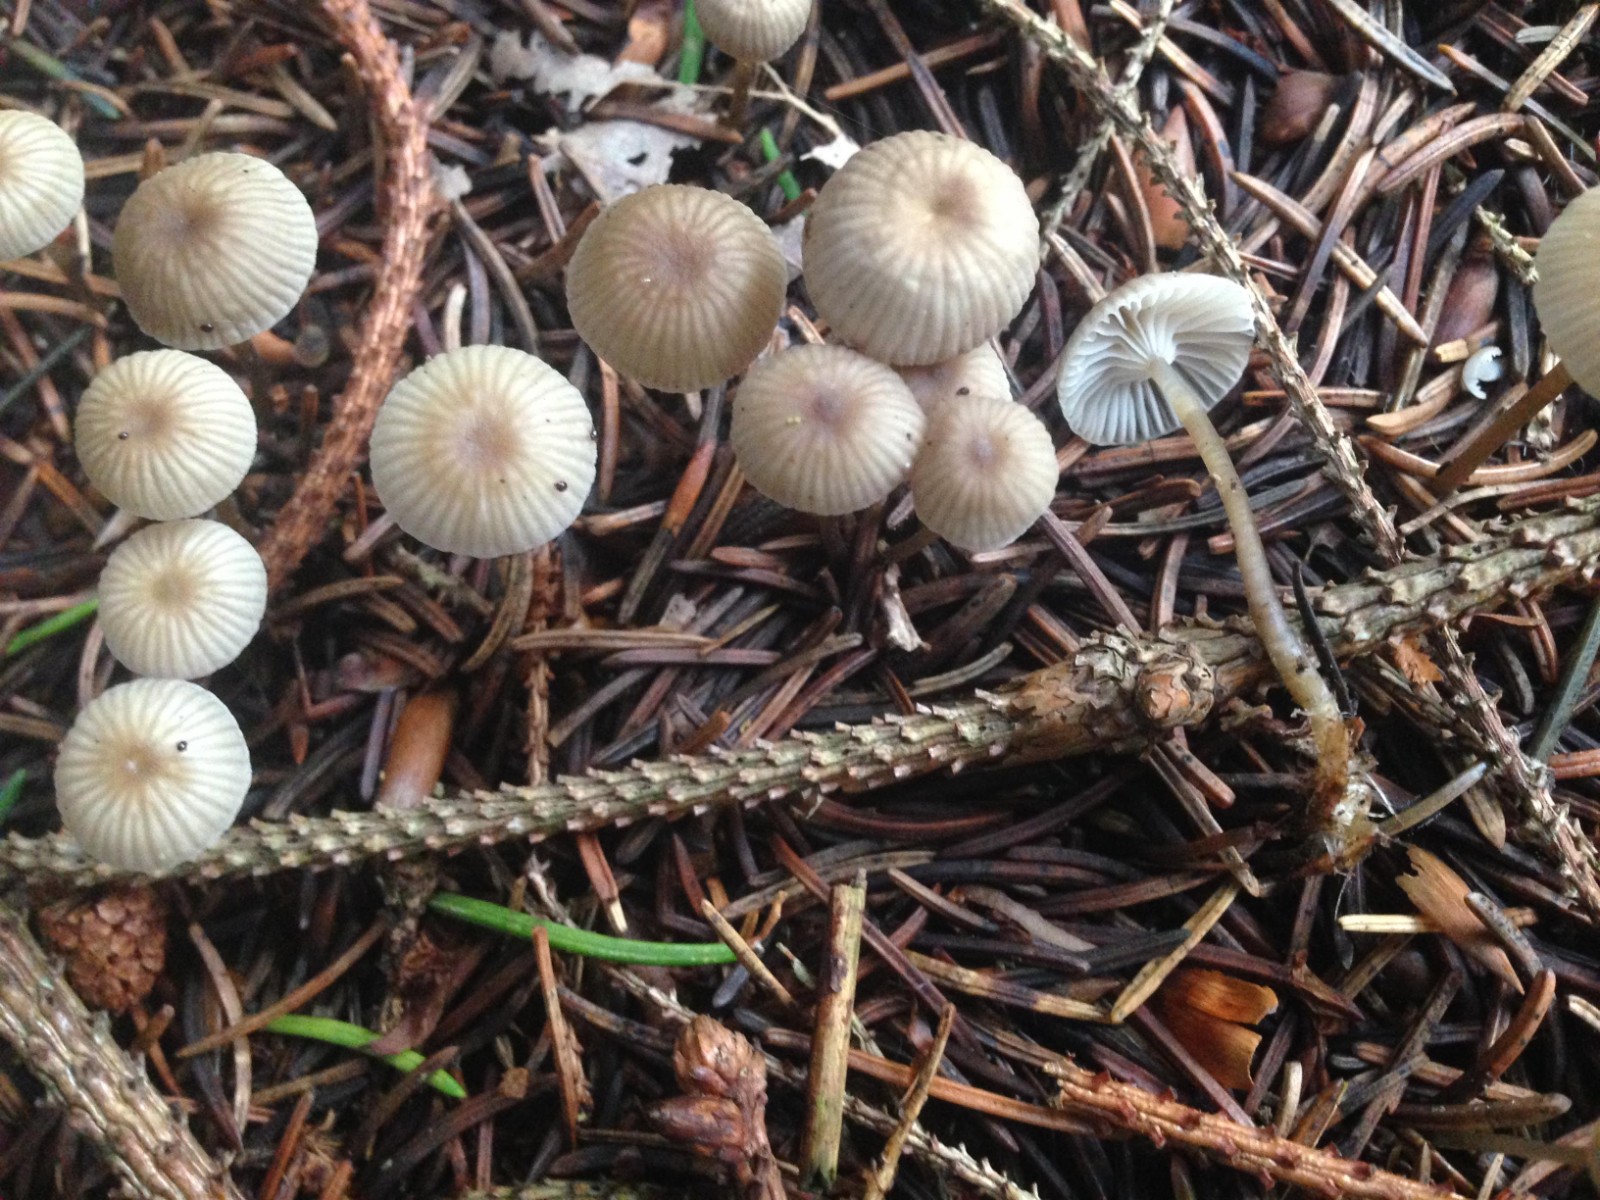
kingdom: Fungi
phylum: Basidiomycota
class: Agaricomycetes
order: Agaricales
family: Mycenaceae
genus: Mycena
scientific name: Mycena vulgaris
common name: klæbrig huesvamp
